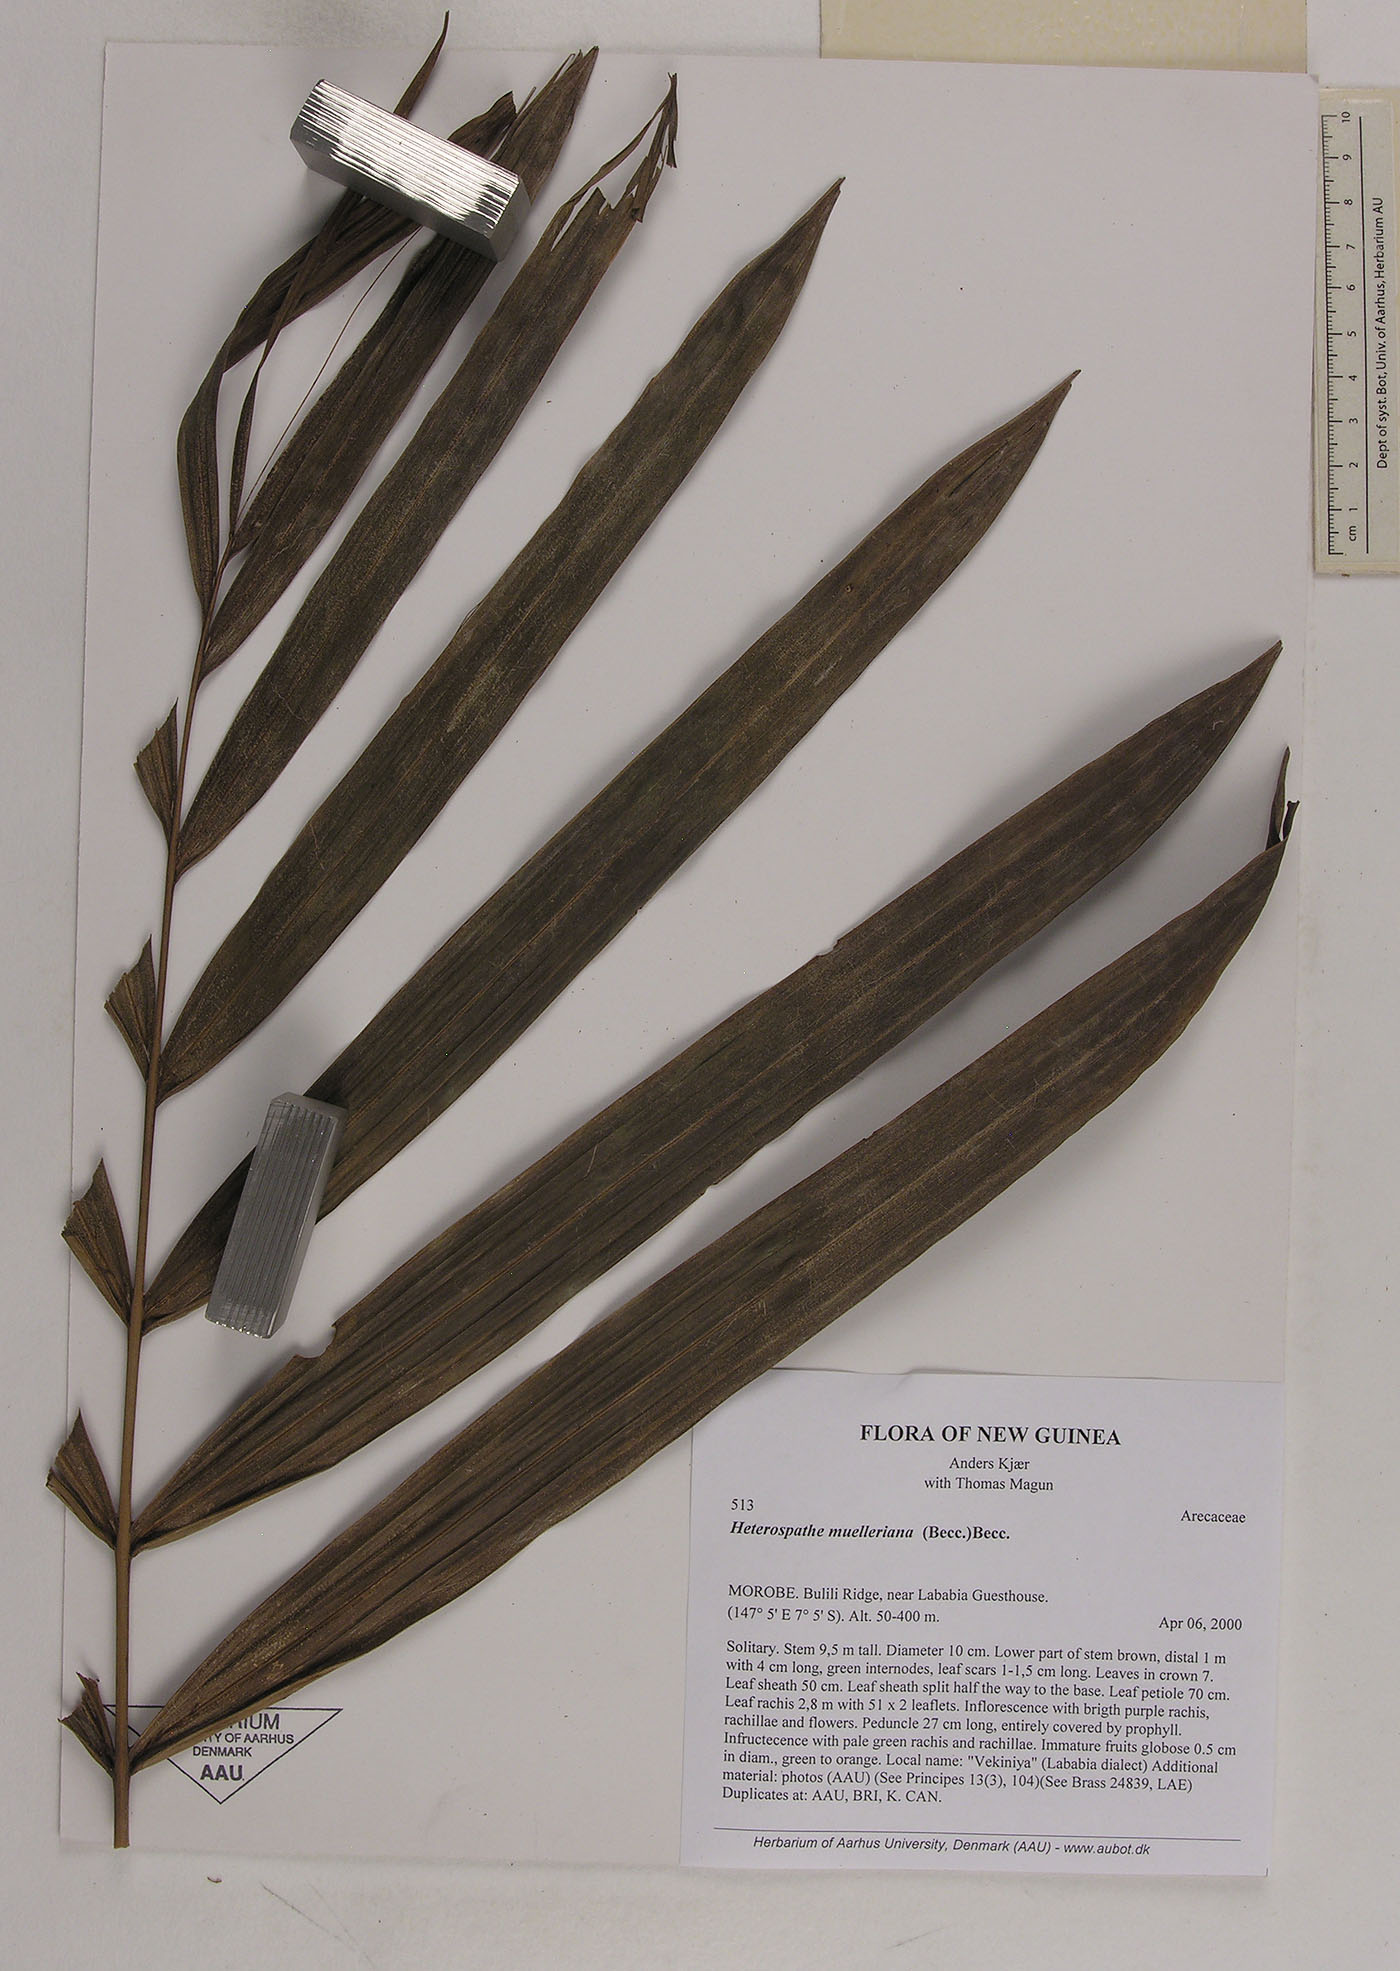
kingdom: Plantae
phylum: Tracheophyta
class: Liliopsida
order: Arecales
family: Arecaceae
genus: Heterospathe
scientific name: Heterospathe muelleriana
